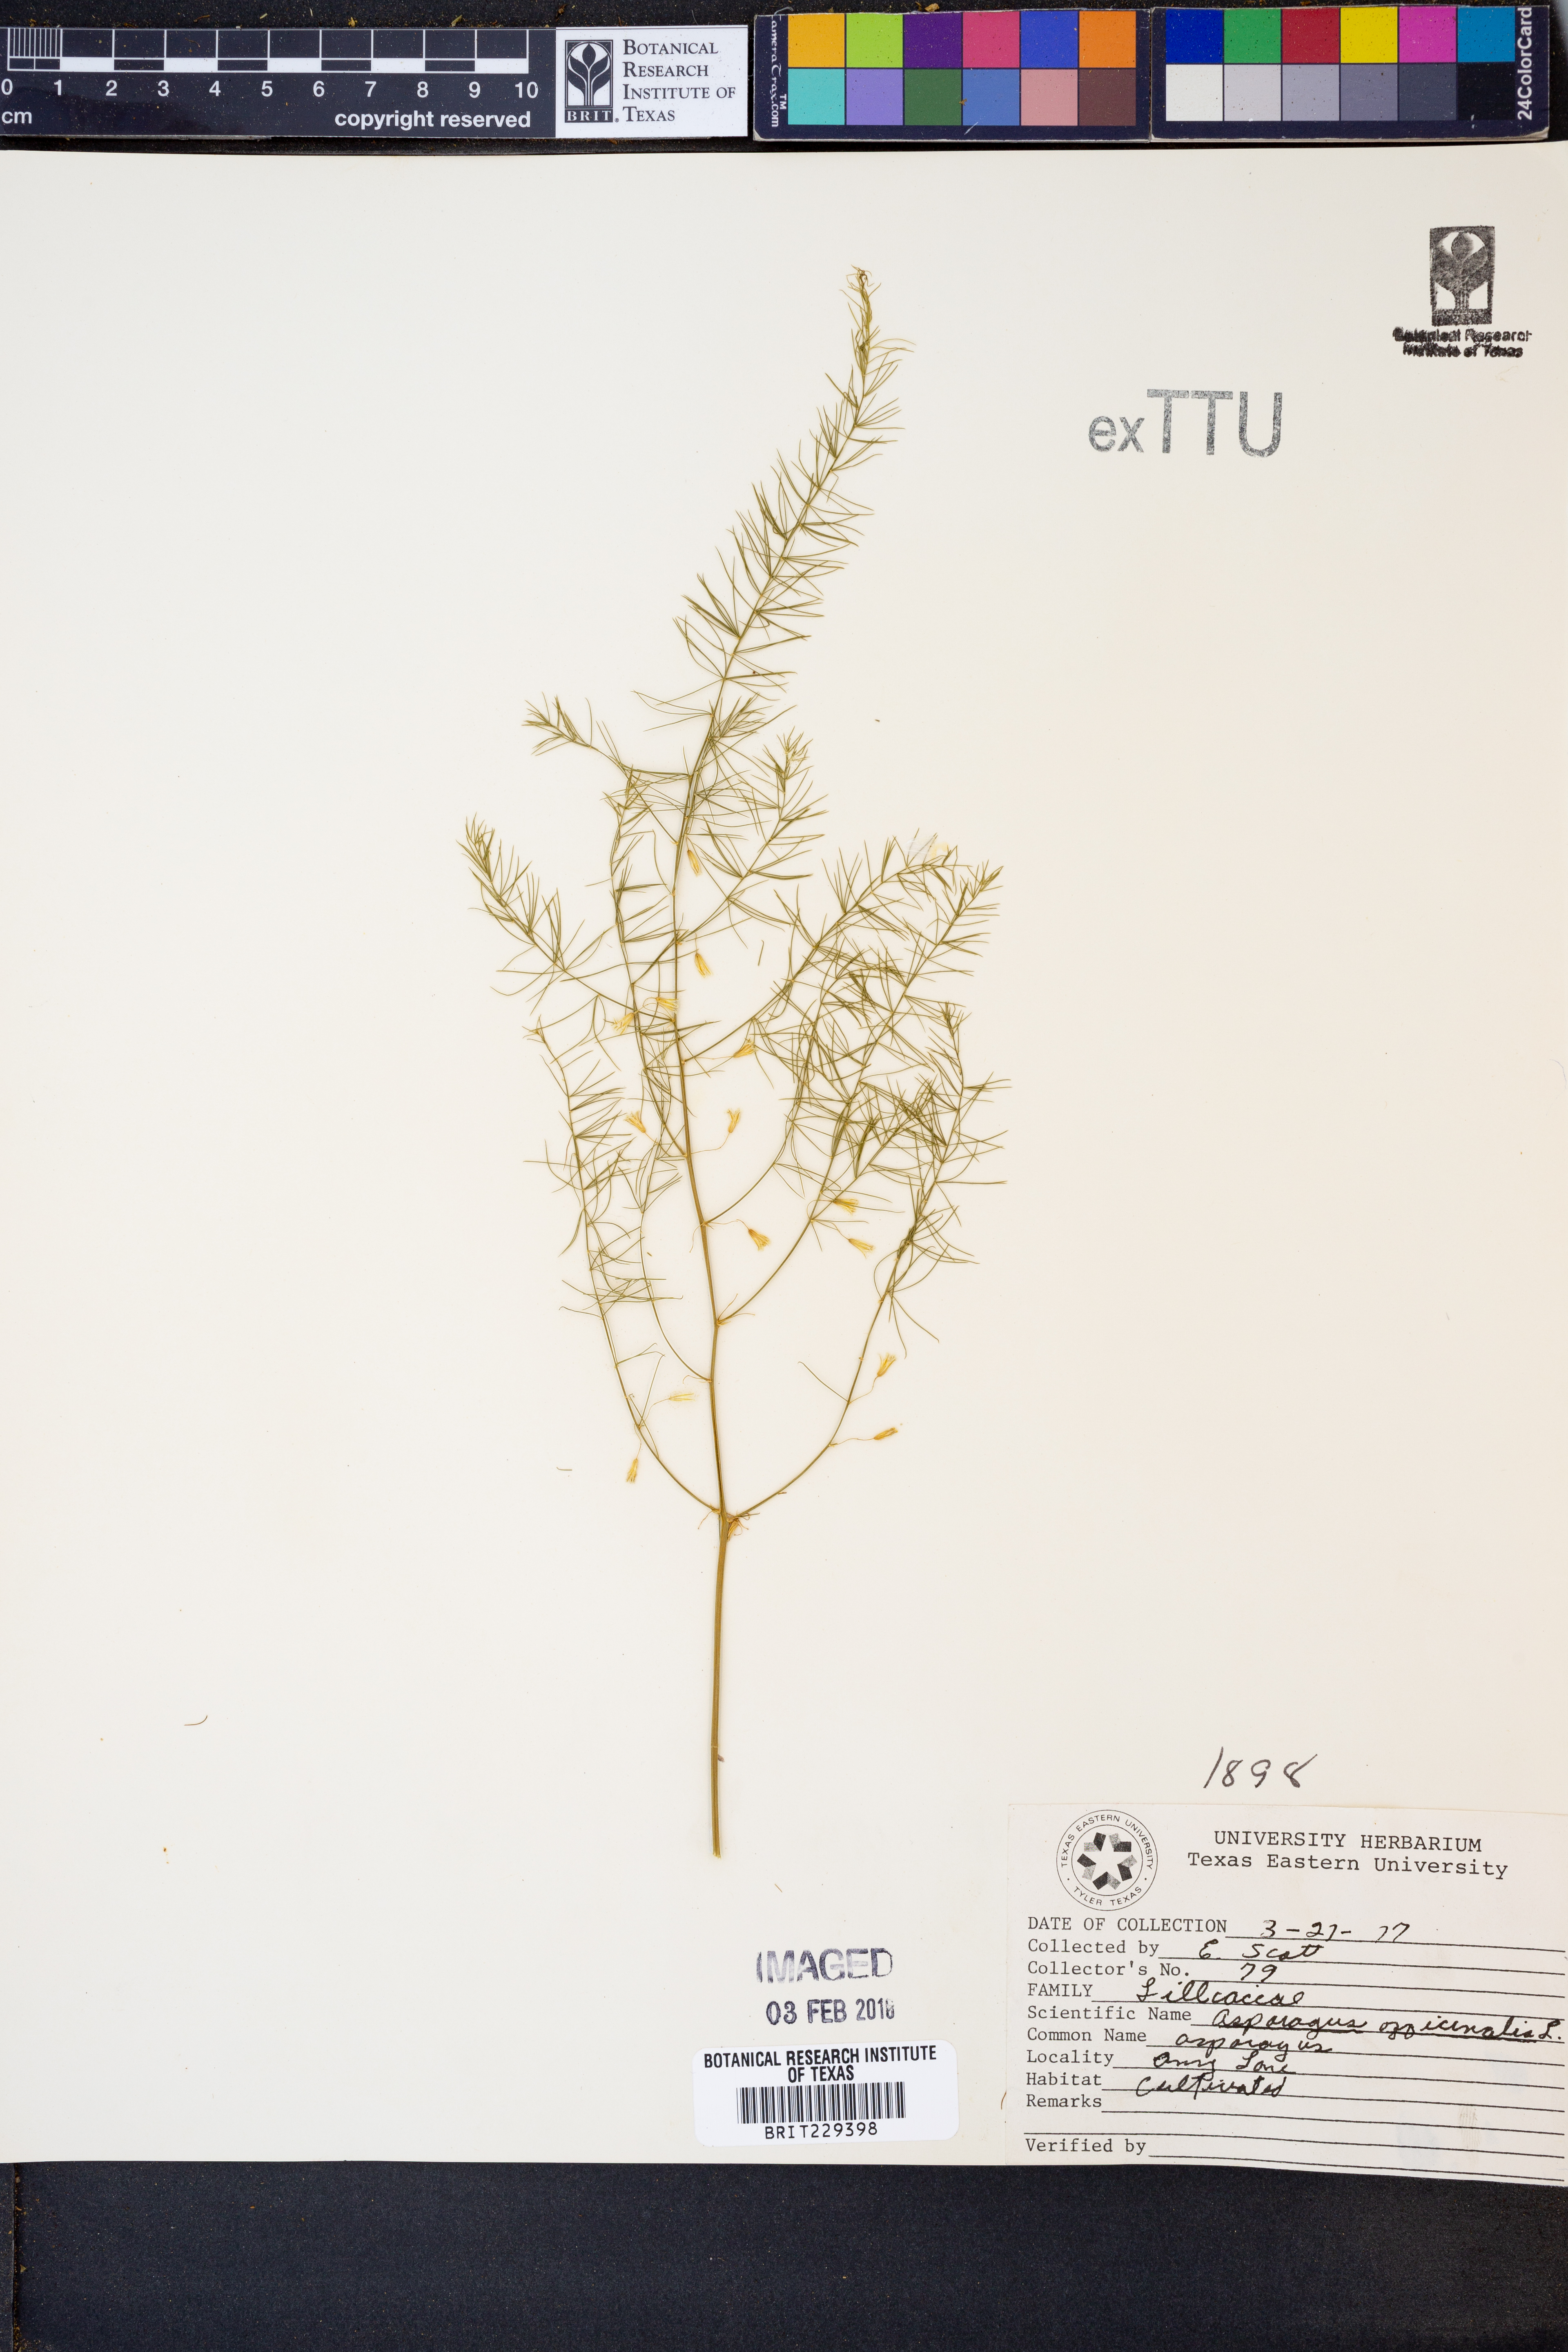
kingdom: Plantae
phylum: Tracheophyta
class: Liliopsida
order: Asparagales
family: Asparagaceae
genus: Asparagus
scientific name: Asparagus officinalis
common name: Garden asparagus
